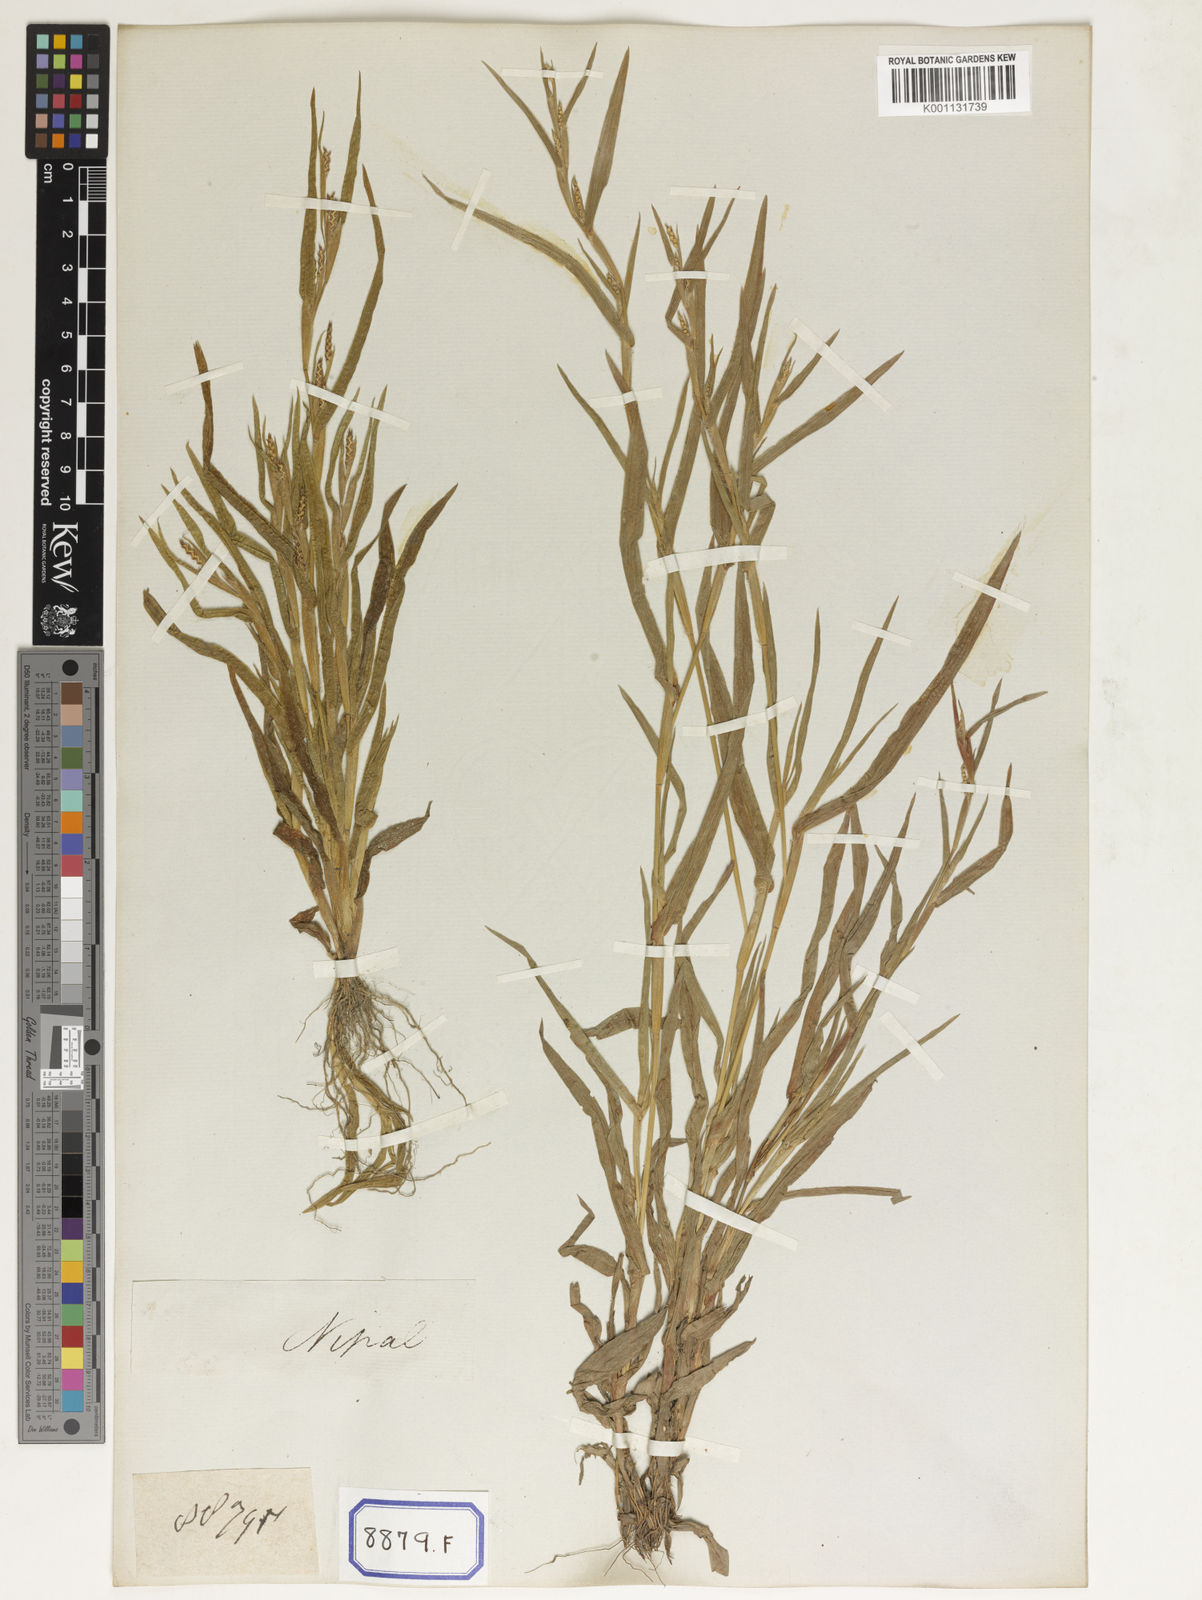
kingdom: Plantae
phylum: Tracheophyta
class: Liliopsida
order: Poales
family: Poaceae
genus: Manisuris
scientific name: Manisuris
